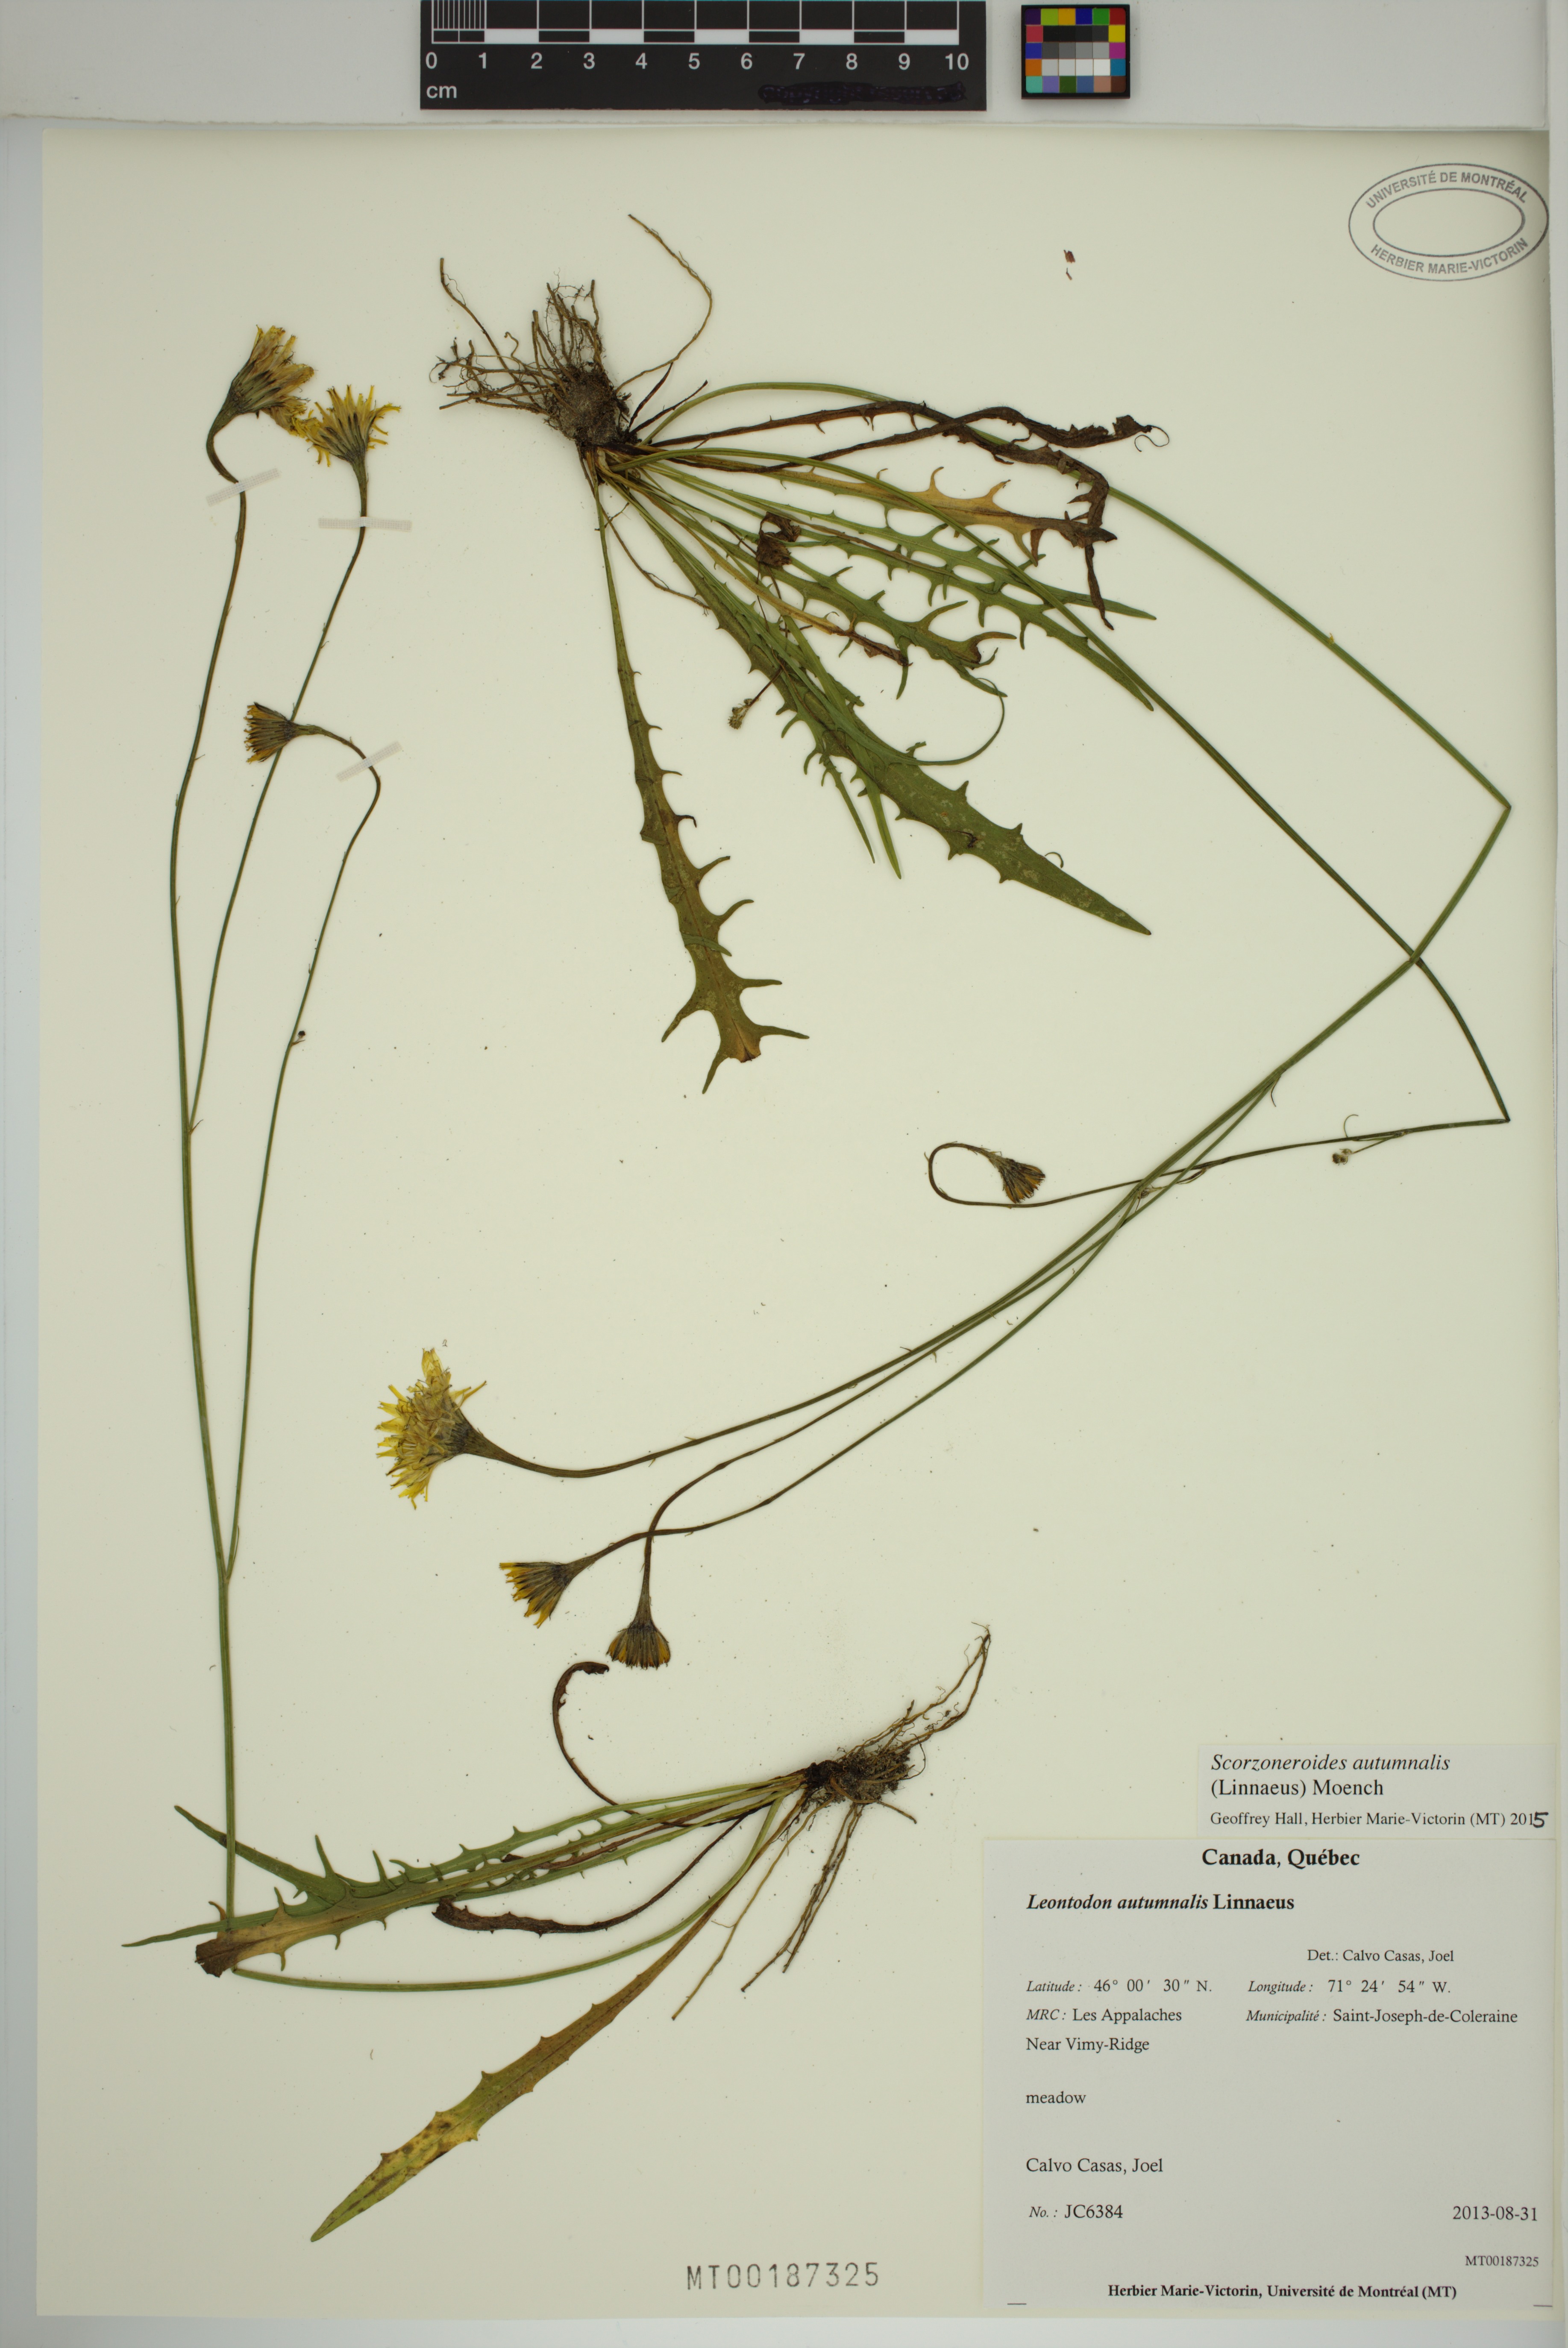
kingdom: Plantae
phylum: Tracheophyta
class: Magnoliopsida
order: Asterales
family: Asteraceae
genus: Scorzoneroides
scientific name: Scorzoneroides autumnalis
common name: Autumn hawkbit
